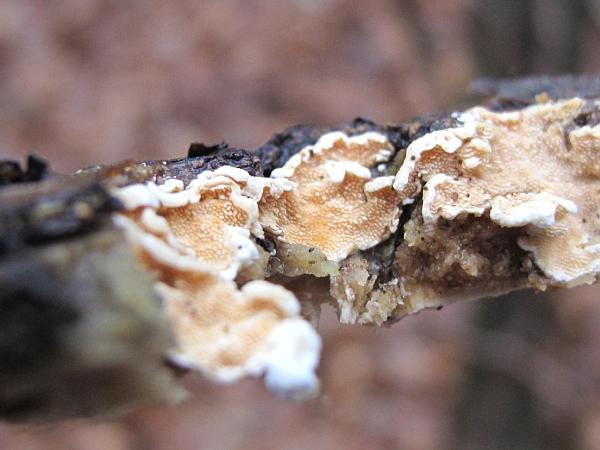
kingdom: Fungi
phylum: Basidiomycota
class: Agaricomycetes
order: Polyporales
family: Steccherinaceae
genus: Steccherinum
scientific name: Steccherinum ochraceum
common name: almindelig skønpig
